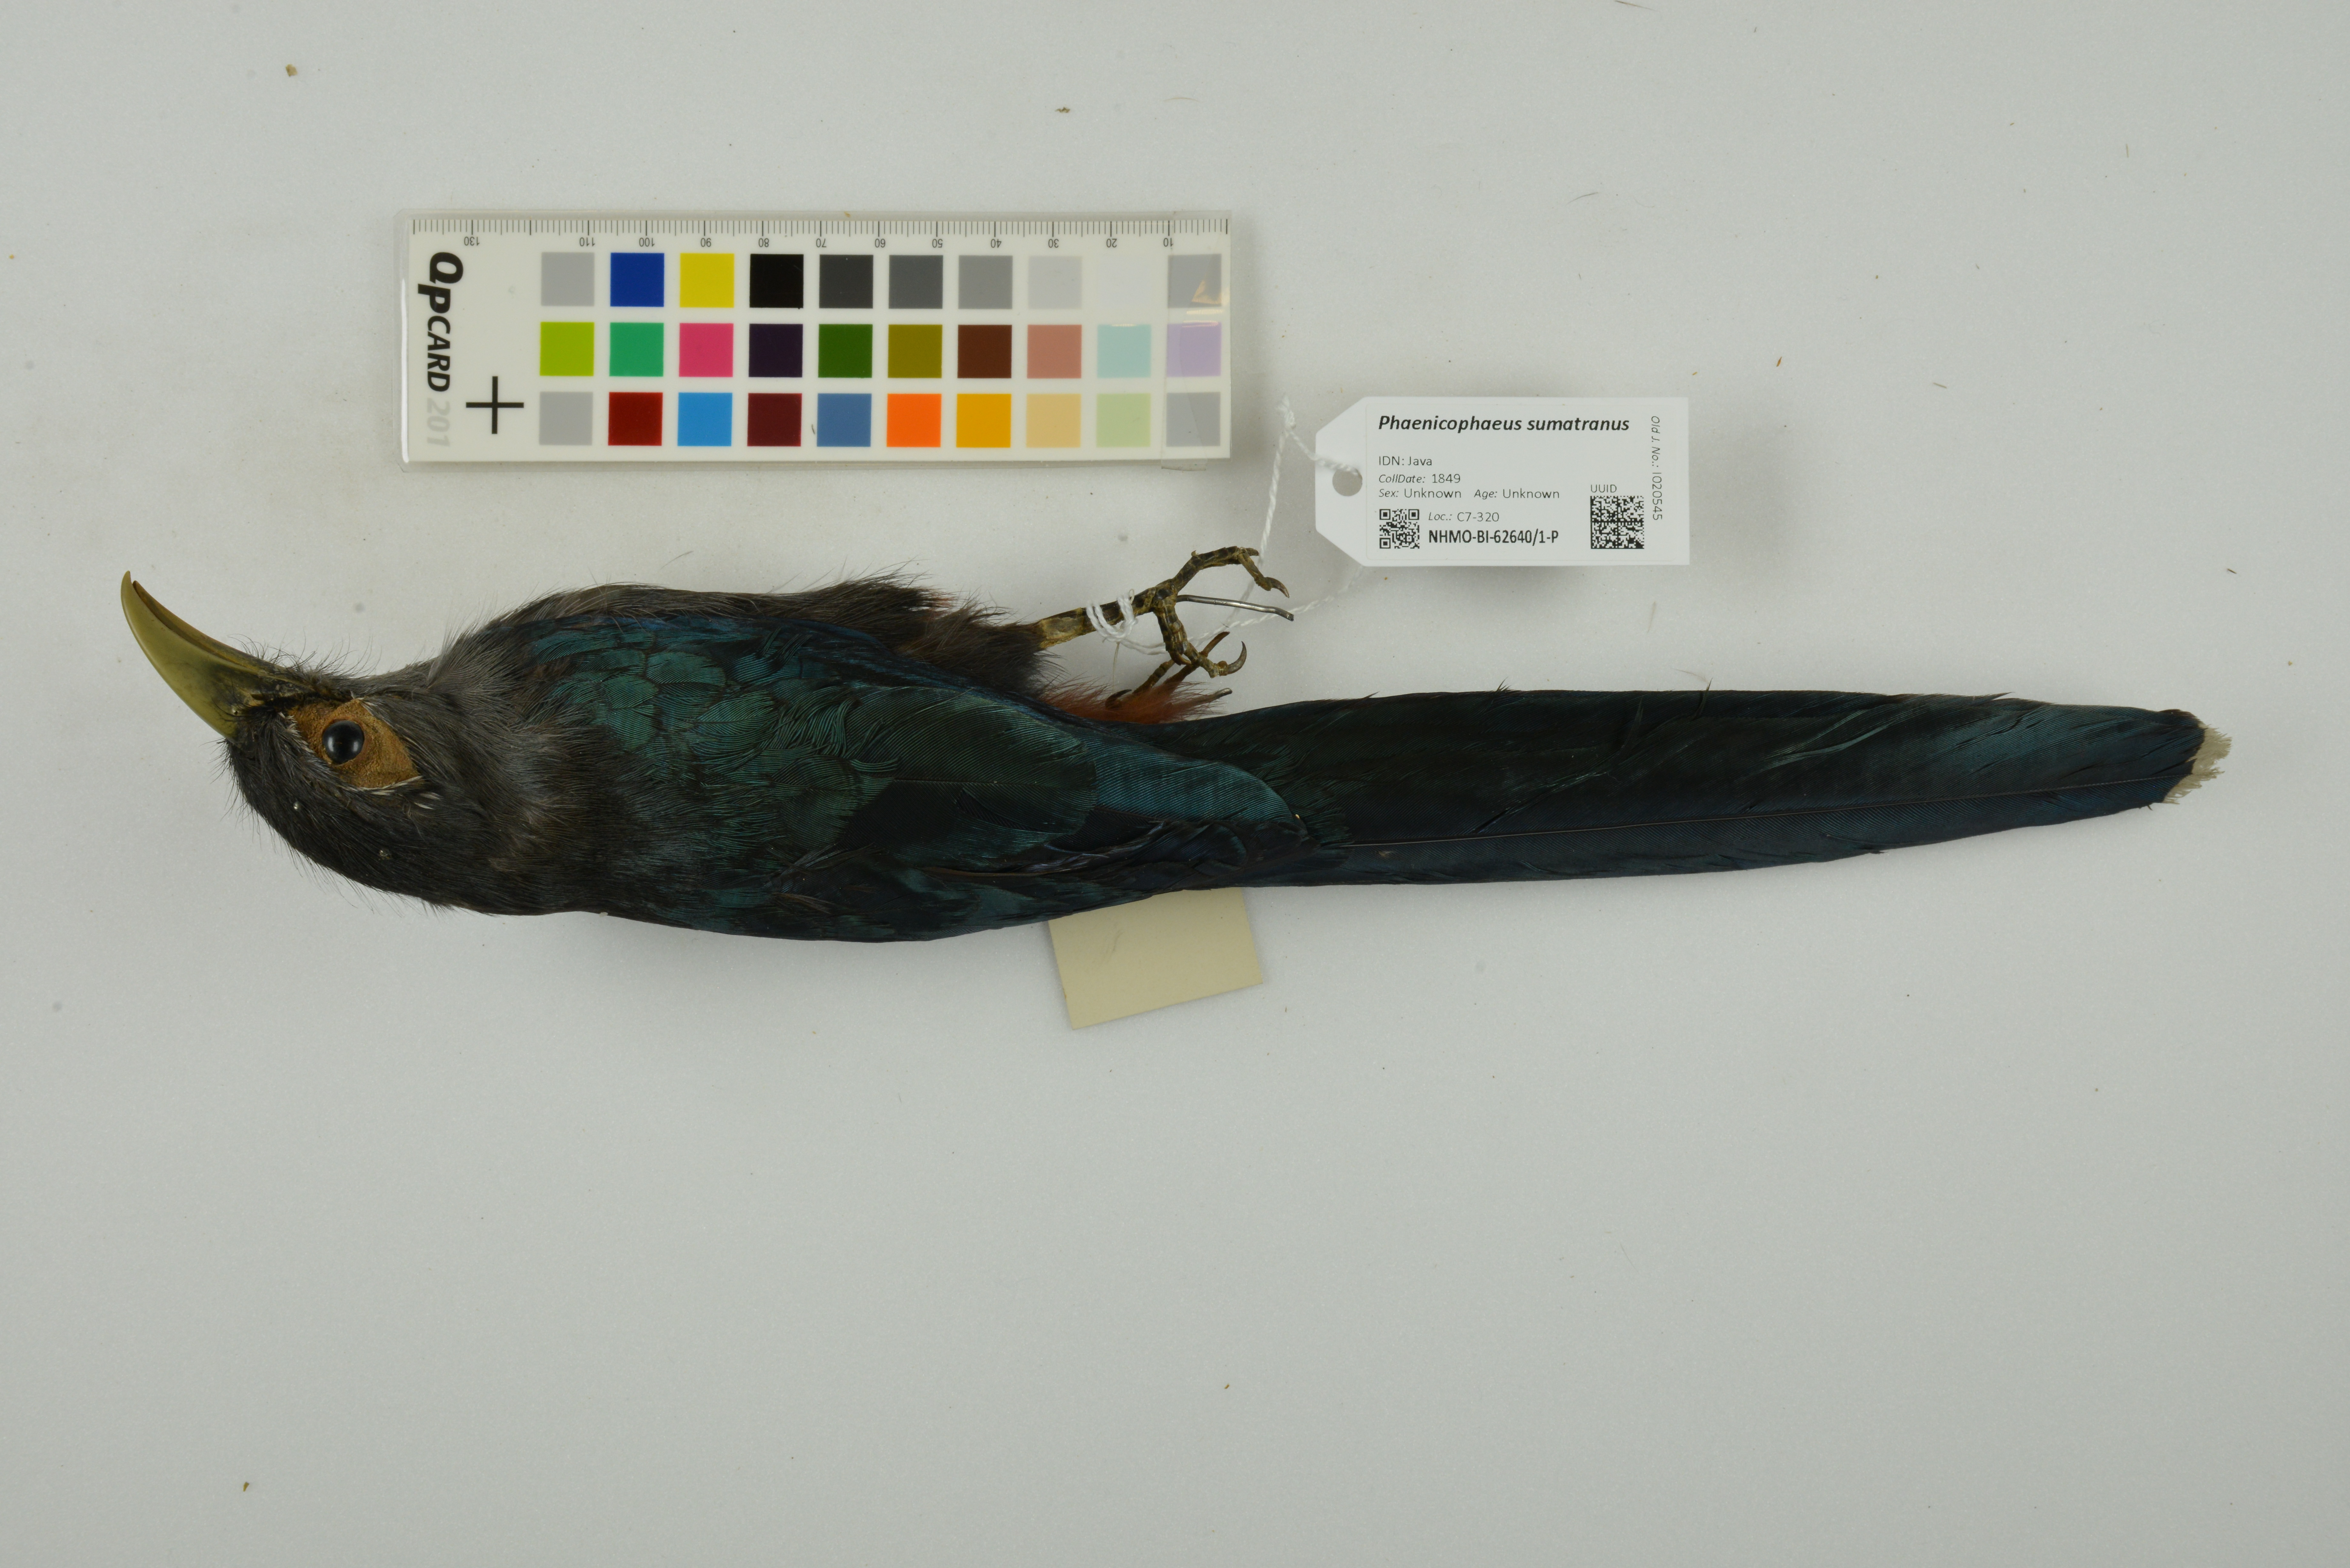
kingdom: Animalia
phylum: Chordata
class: Aves
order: Cuculiformes
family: Cuculidae
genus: Rhopodytes
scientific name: Rhopodytes sumatranus
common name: Rufous-bellied malcoha
